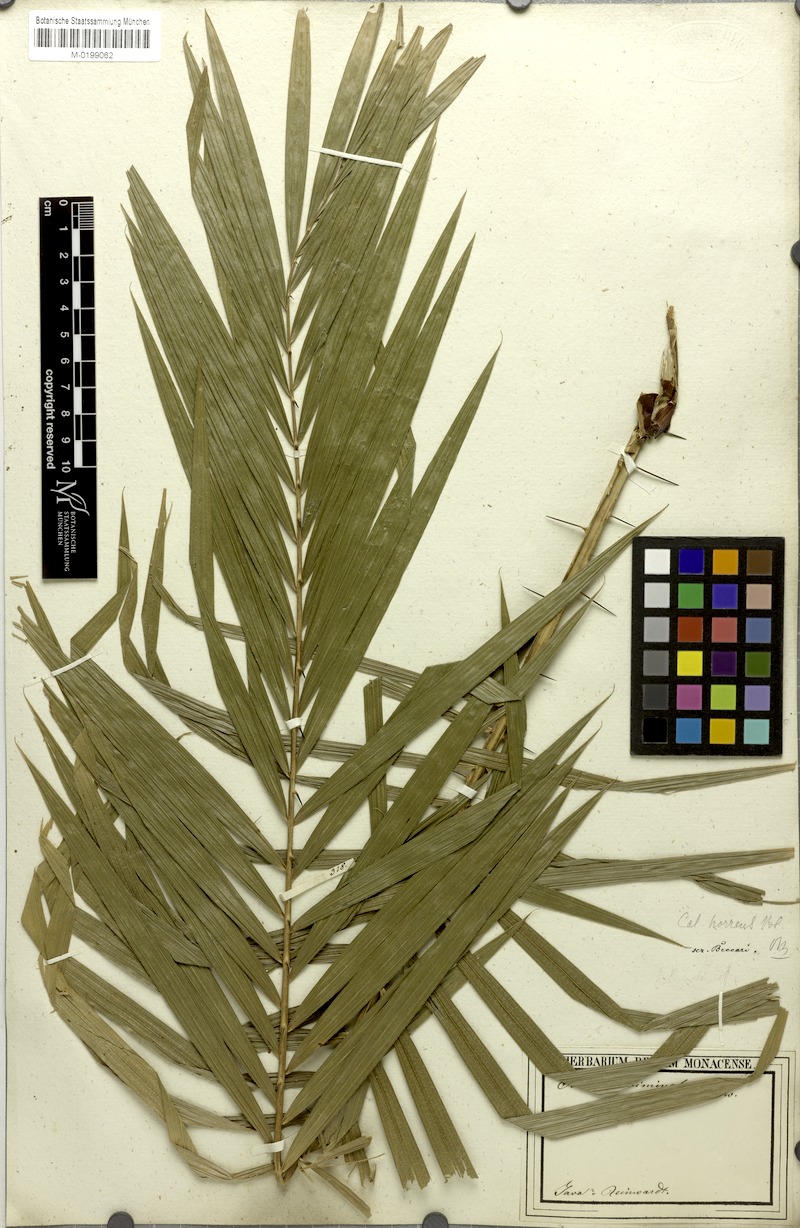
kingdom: Plantae
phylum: Tracheophyta
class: Liliopsida
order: Arecales
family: Arecaceae
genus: Calamus
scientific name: Calamus tenuis
